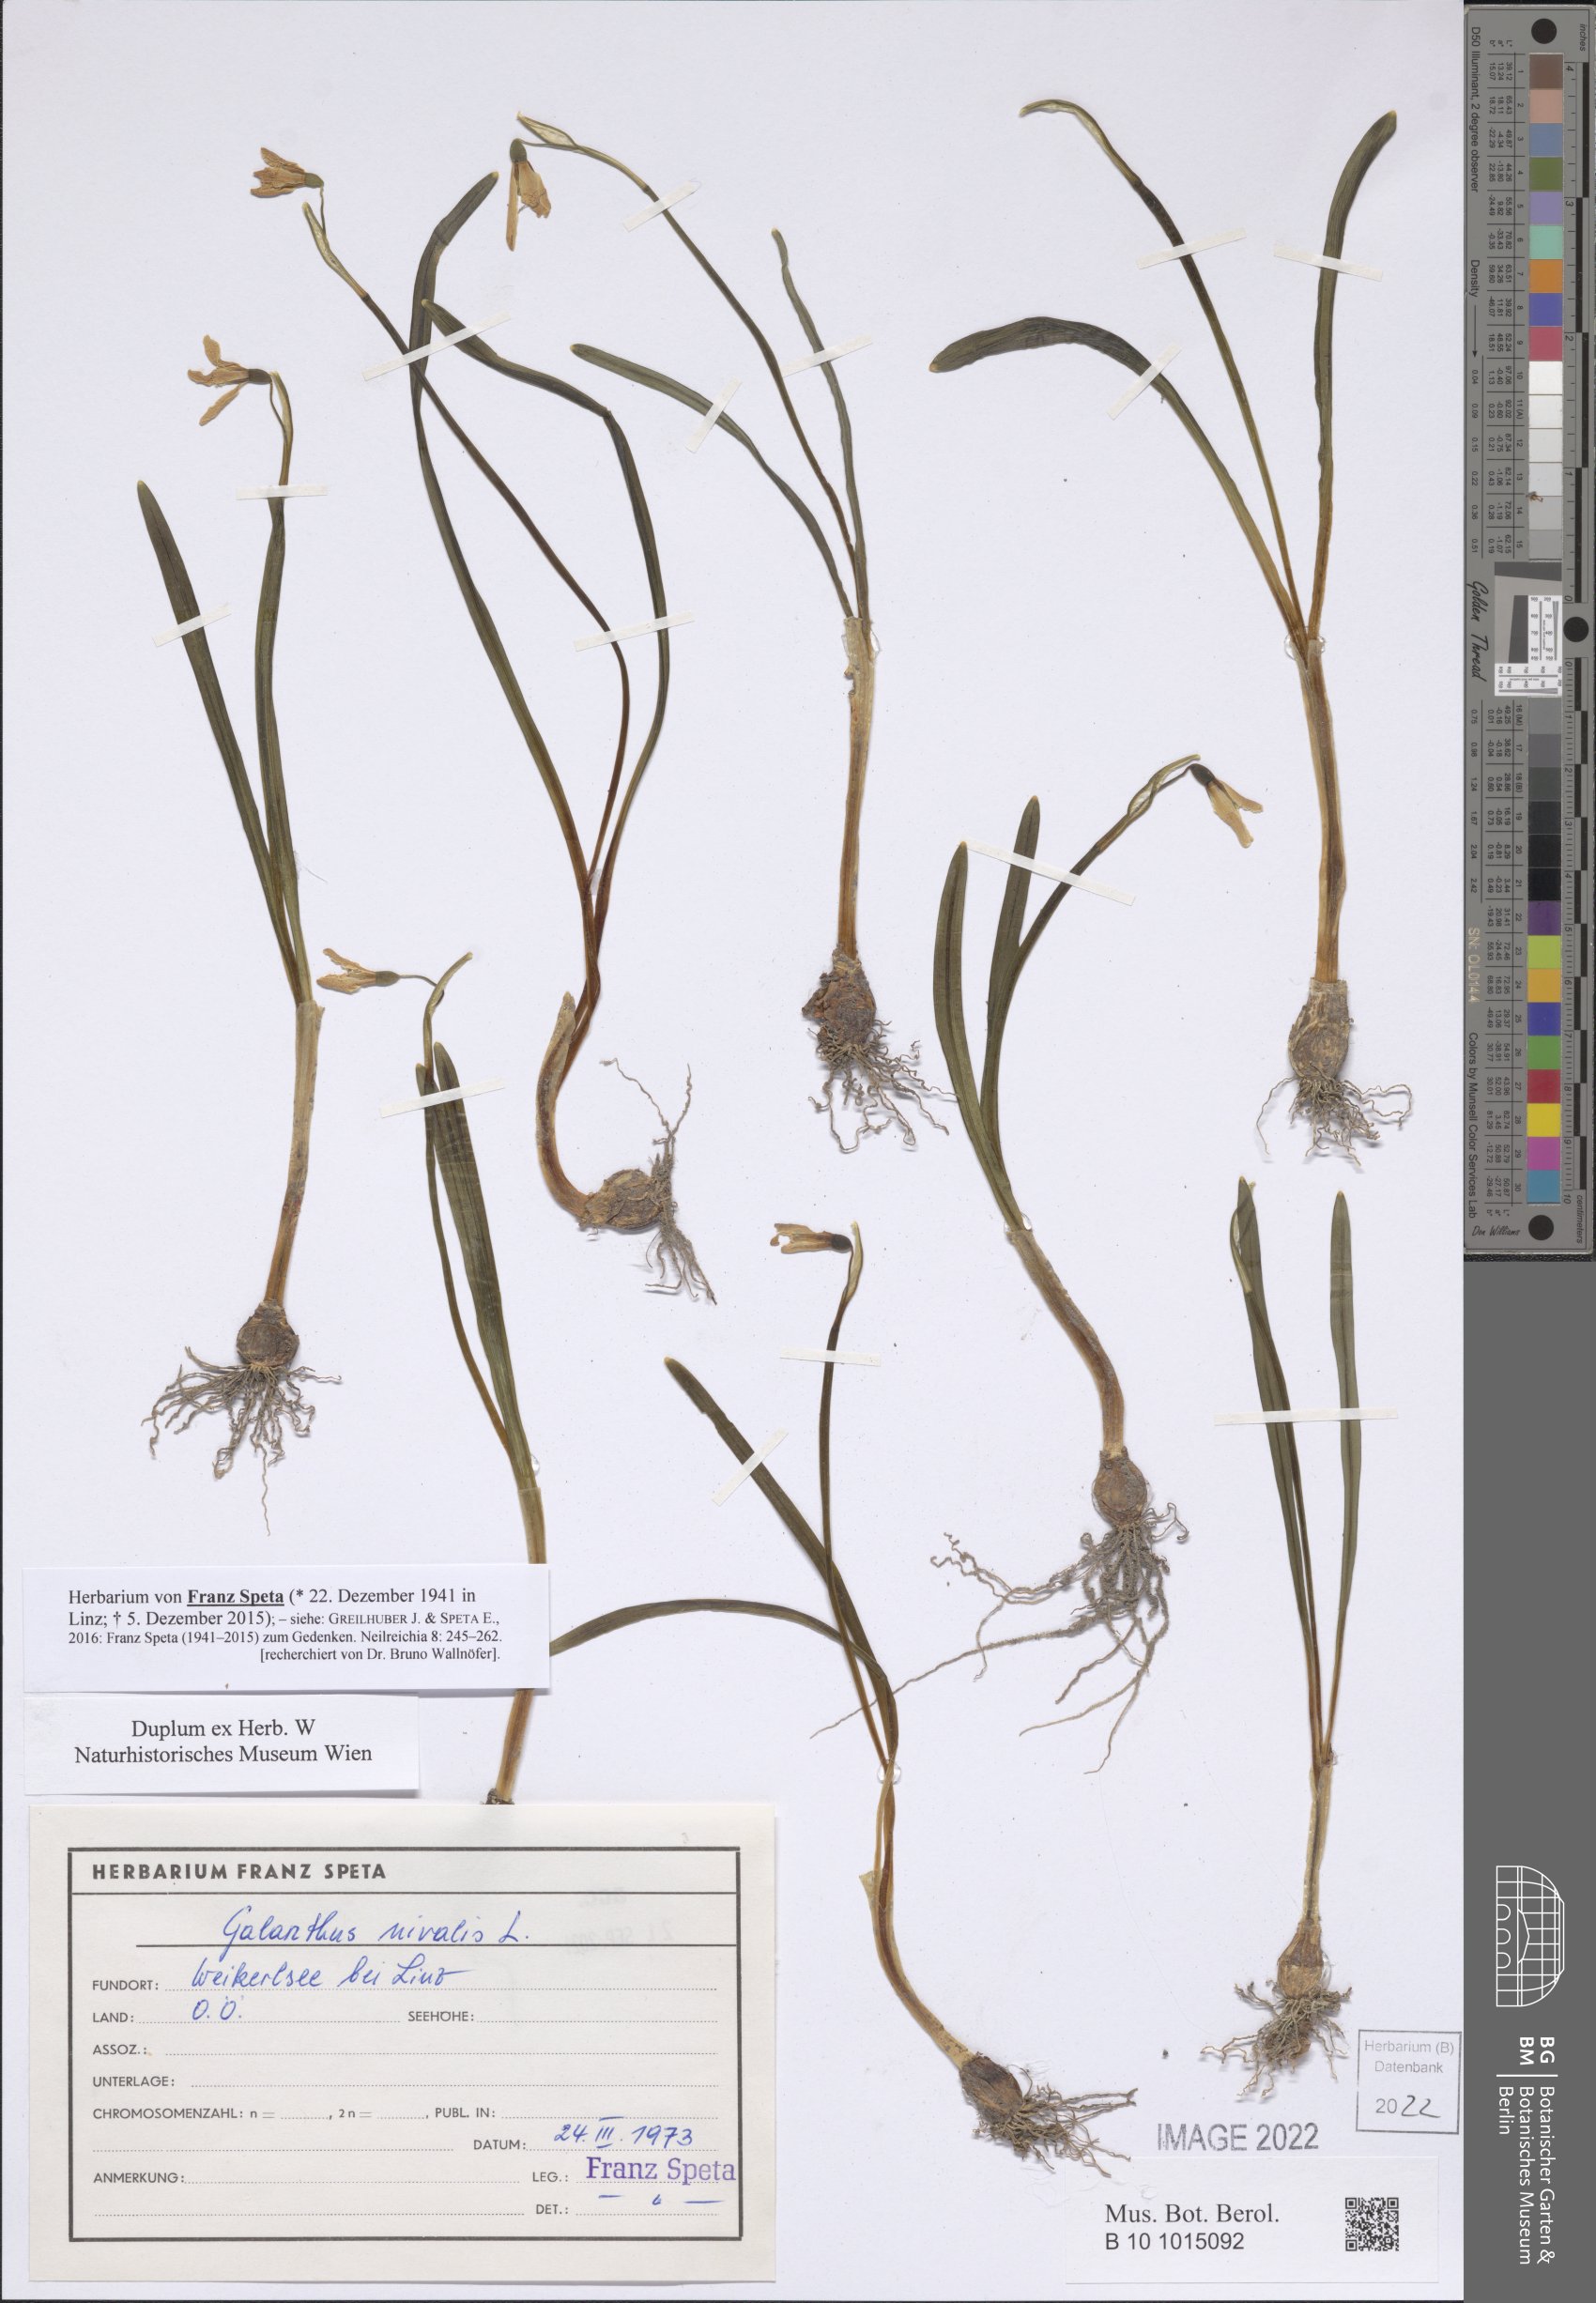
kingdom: Plantae
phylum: Tracheophyta
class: Liliopsida
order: Asparagales
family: Amaryllidaceae
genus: Galanthus
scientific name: Galanthus nivalis
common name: Snowdrop
